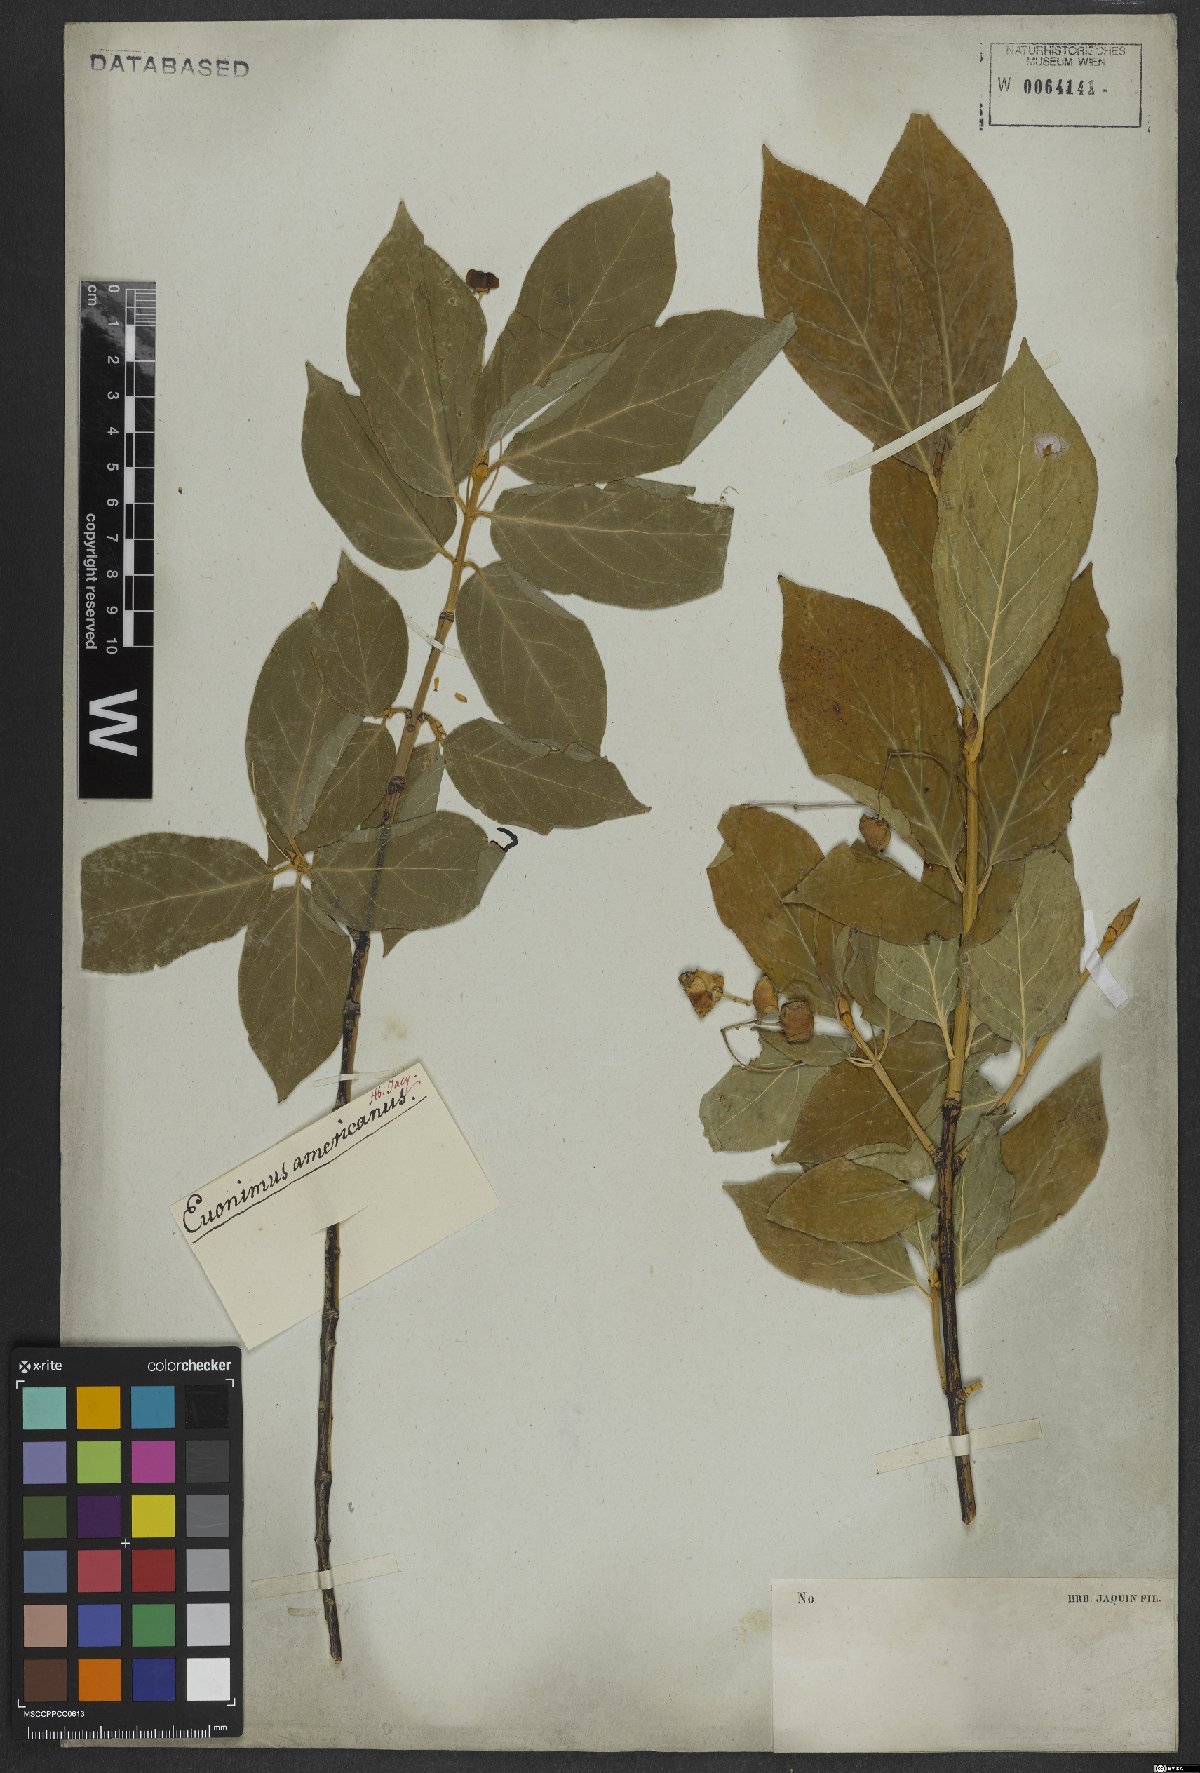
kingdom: Plantae
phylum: Tracheophyta
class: Magnoliopsida
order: Celastrales
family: Celastraceae
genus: Euonymus
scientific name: Euonymus latifolius
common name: Large-leaved spindle
